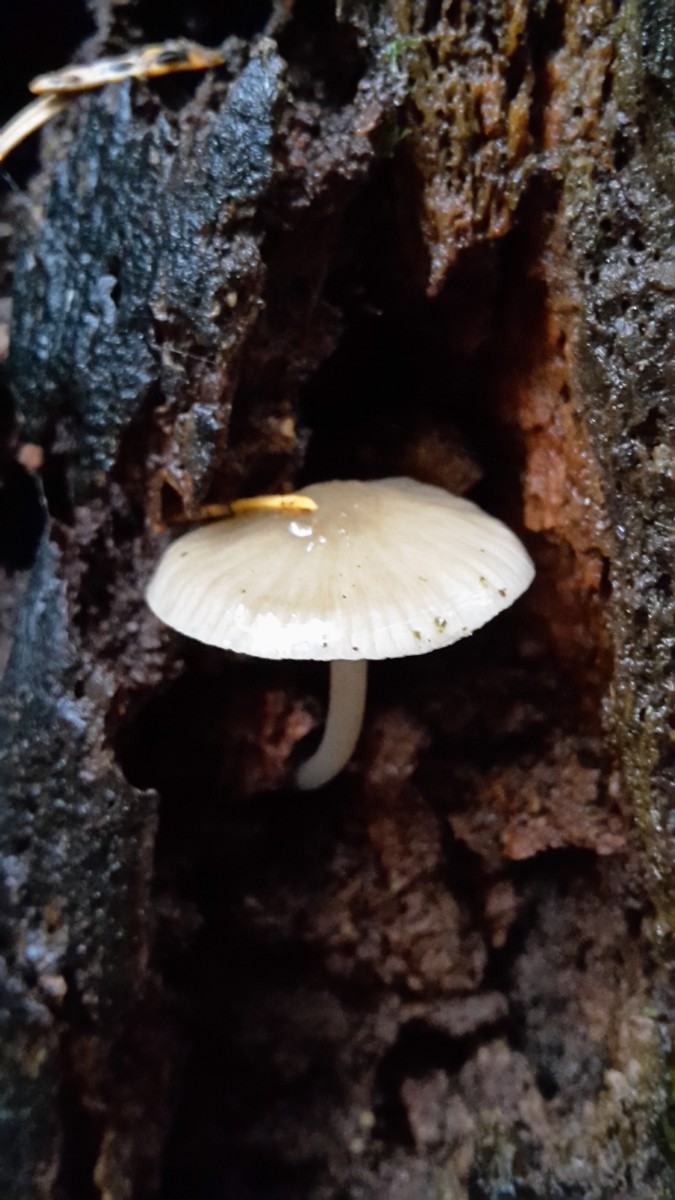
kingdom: Fungi
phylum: Basidiomycota
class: Agaricomycetes
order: Agaricales
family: Mycenaceae
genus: Mycena
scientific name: Mycena galericulata
